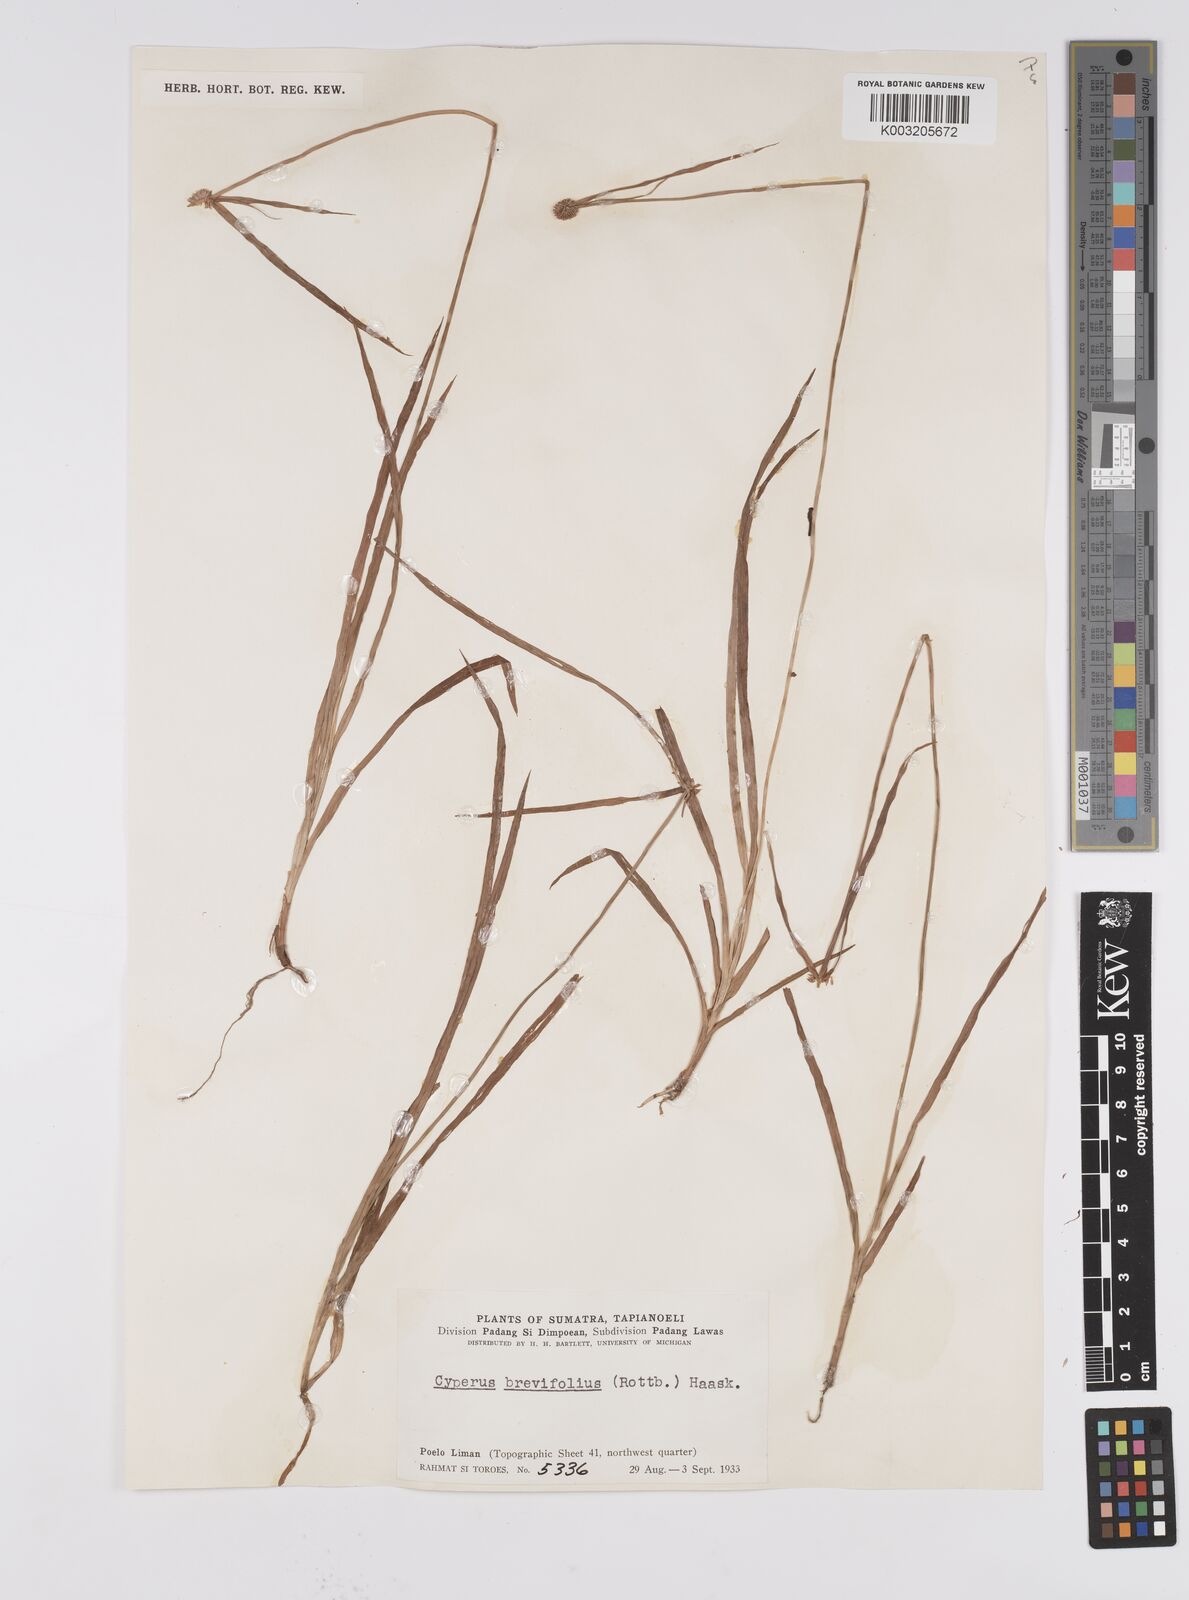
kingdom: Plantae
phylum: Tracheophyta
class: Liliopsida
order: Poales
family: Cyperaceae
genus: Cyperus
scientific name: Cyperus brevifolius
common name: Globe kyllinga
